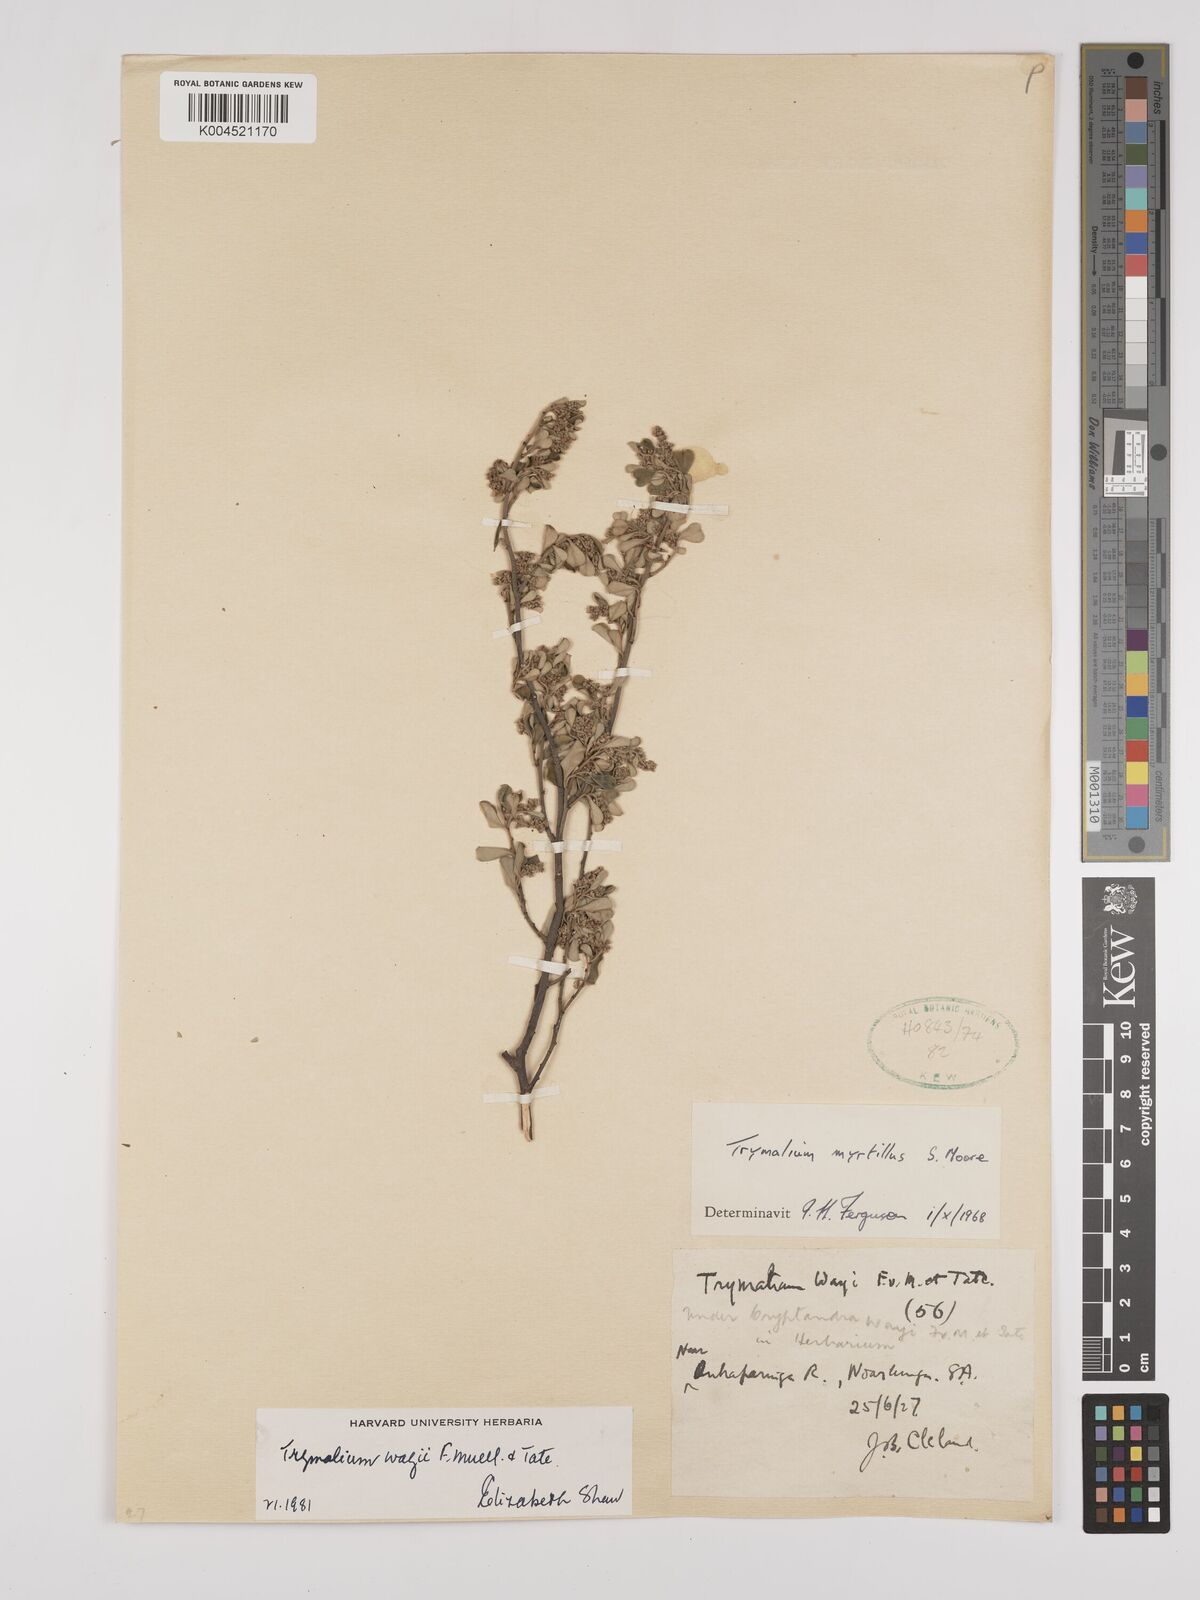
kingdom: Plantae
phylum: Tracheophyta
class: Magnoliopsida
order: Rosales
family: Rhamnaceae
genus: Trymalium
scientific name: Trymalium wayi
